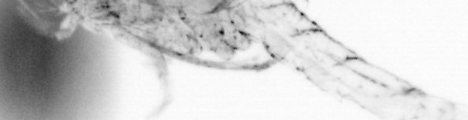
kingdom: Animalia
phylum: Arthropoda
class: Copepoda
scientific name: Copepoda
